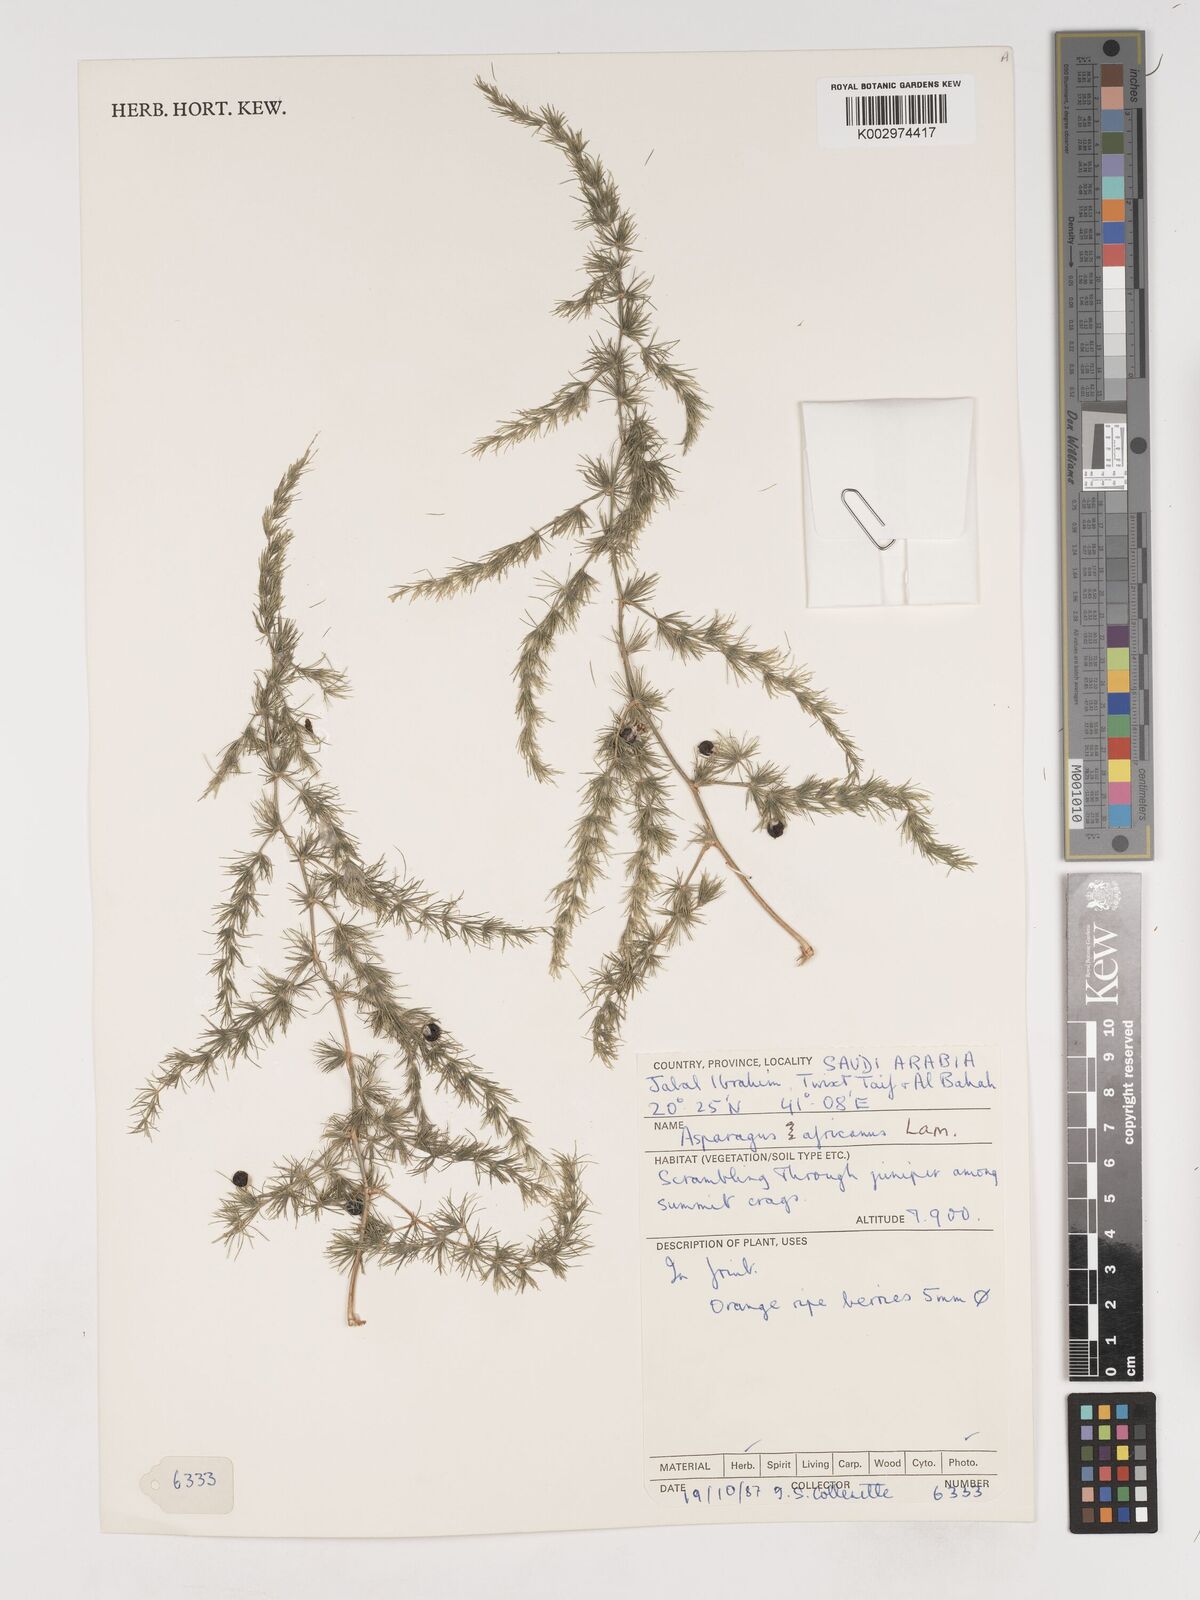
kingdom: Plantae
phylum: Tracheophyta
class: Liliopsida
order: Asparagales
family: Asparagaceae
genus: Asparagus
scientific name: Asparagus africanus
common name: Asparagus-fern
